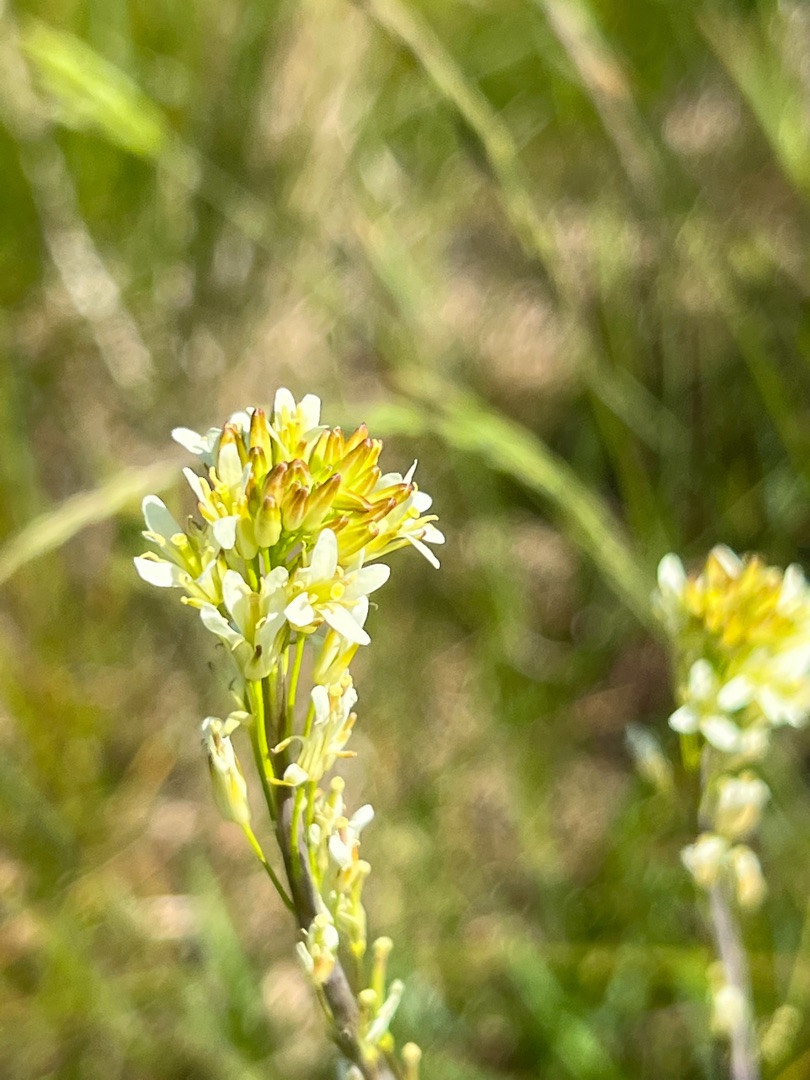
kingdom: Plantae
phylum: Tracheophyta
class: Magnoliopsida
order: Brassicales
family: Brassicaceae
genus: Turritis
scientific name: Turritis glabra
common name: Tårnurt
